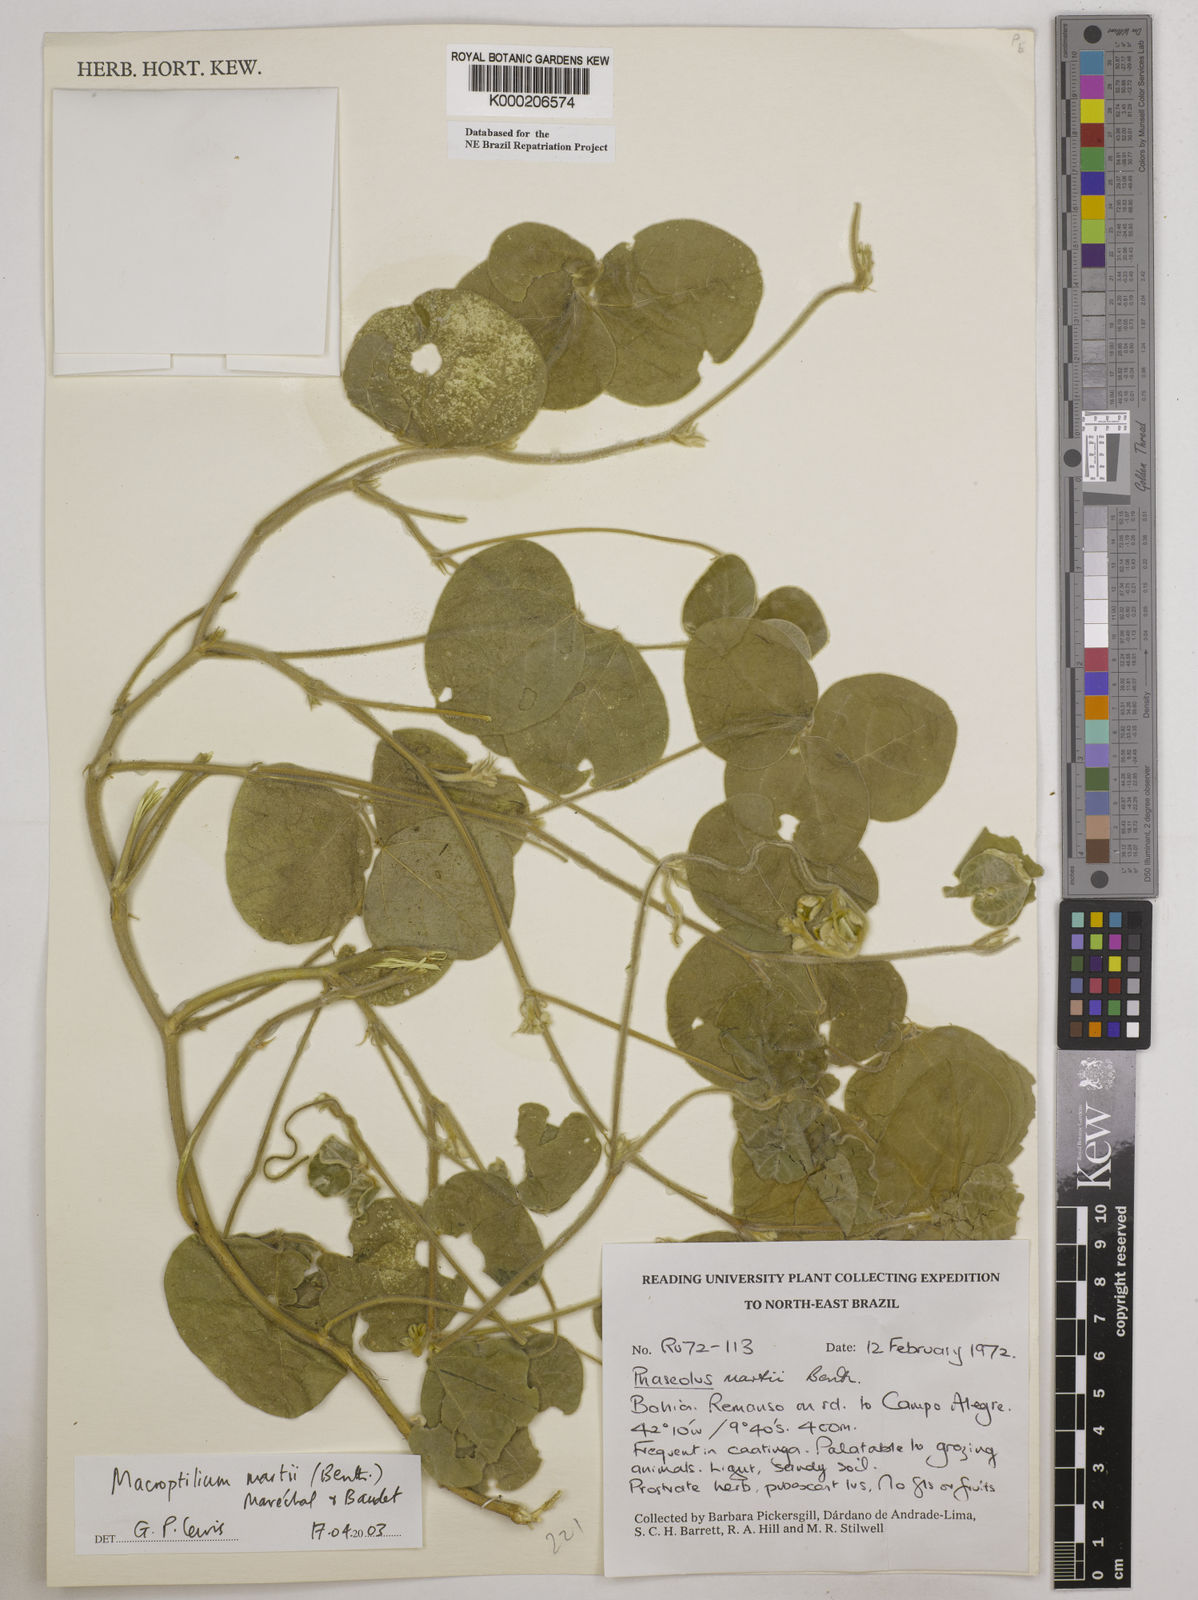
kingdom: Plantae
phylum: Tracheophyta
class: Magnoliopsida
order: Fabales
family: Fabaceae
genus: Macroptilium
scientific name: Macroptilium
